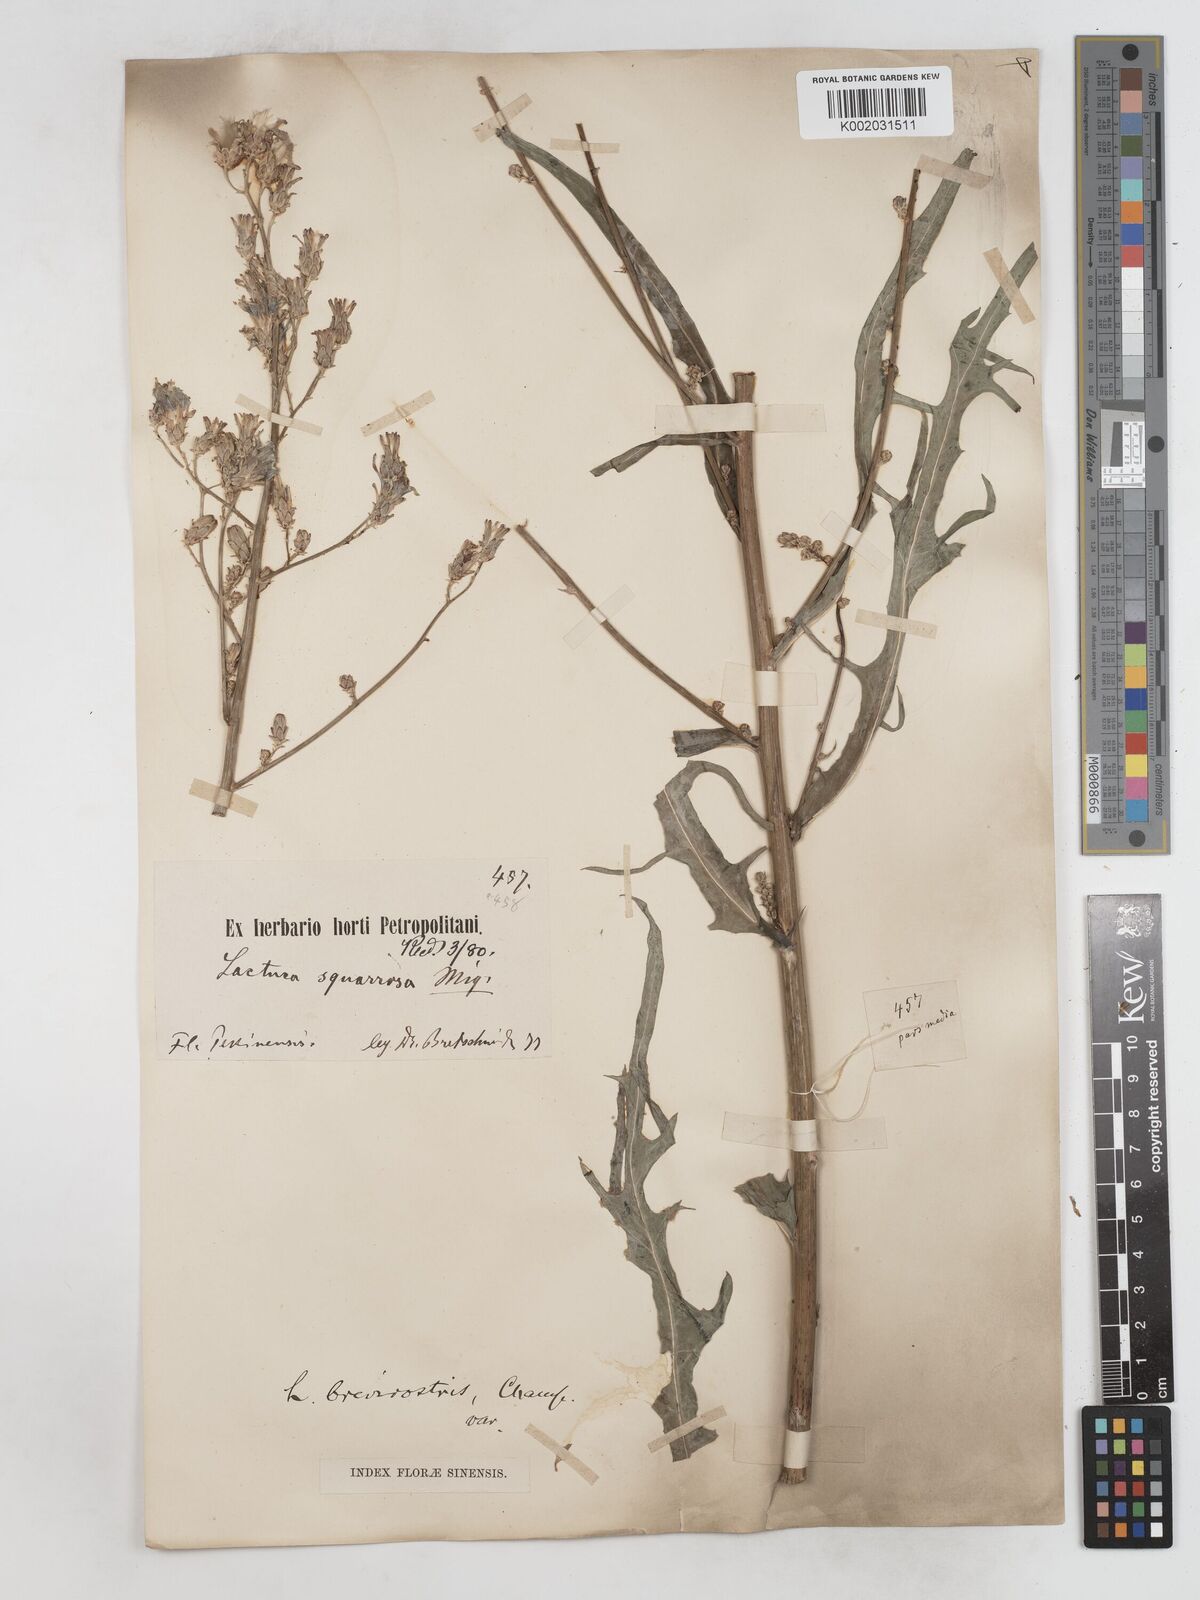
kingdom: Plantae
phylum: Tracheophyta
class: Magnoliopsida
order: Asterales
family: Asteraceae
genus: Lactuca
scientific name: Lactuca
